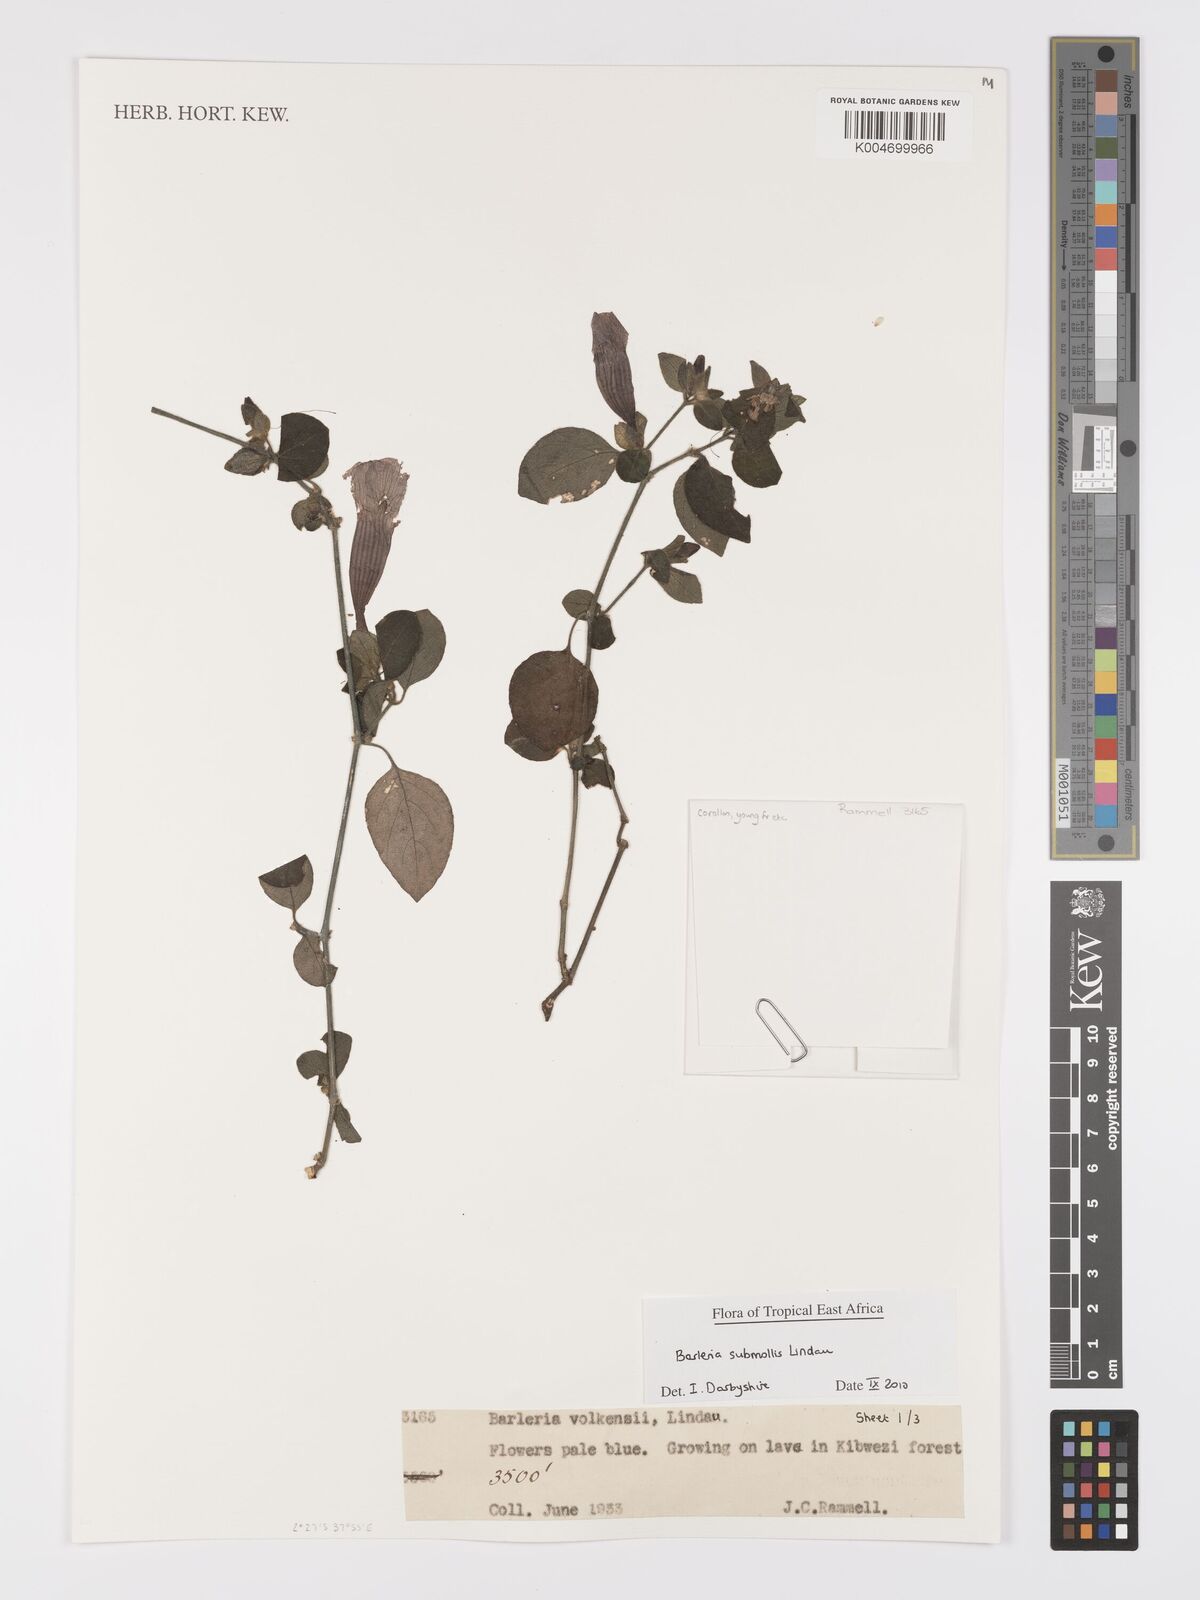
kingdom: Plantae
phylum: Tracheophyta
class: Magnoliopsida
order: Lamiales
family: Acanthaceae
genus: Barleria
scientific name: Barleria submollis
